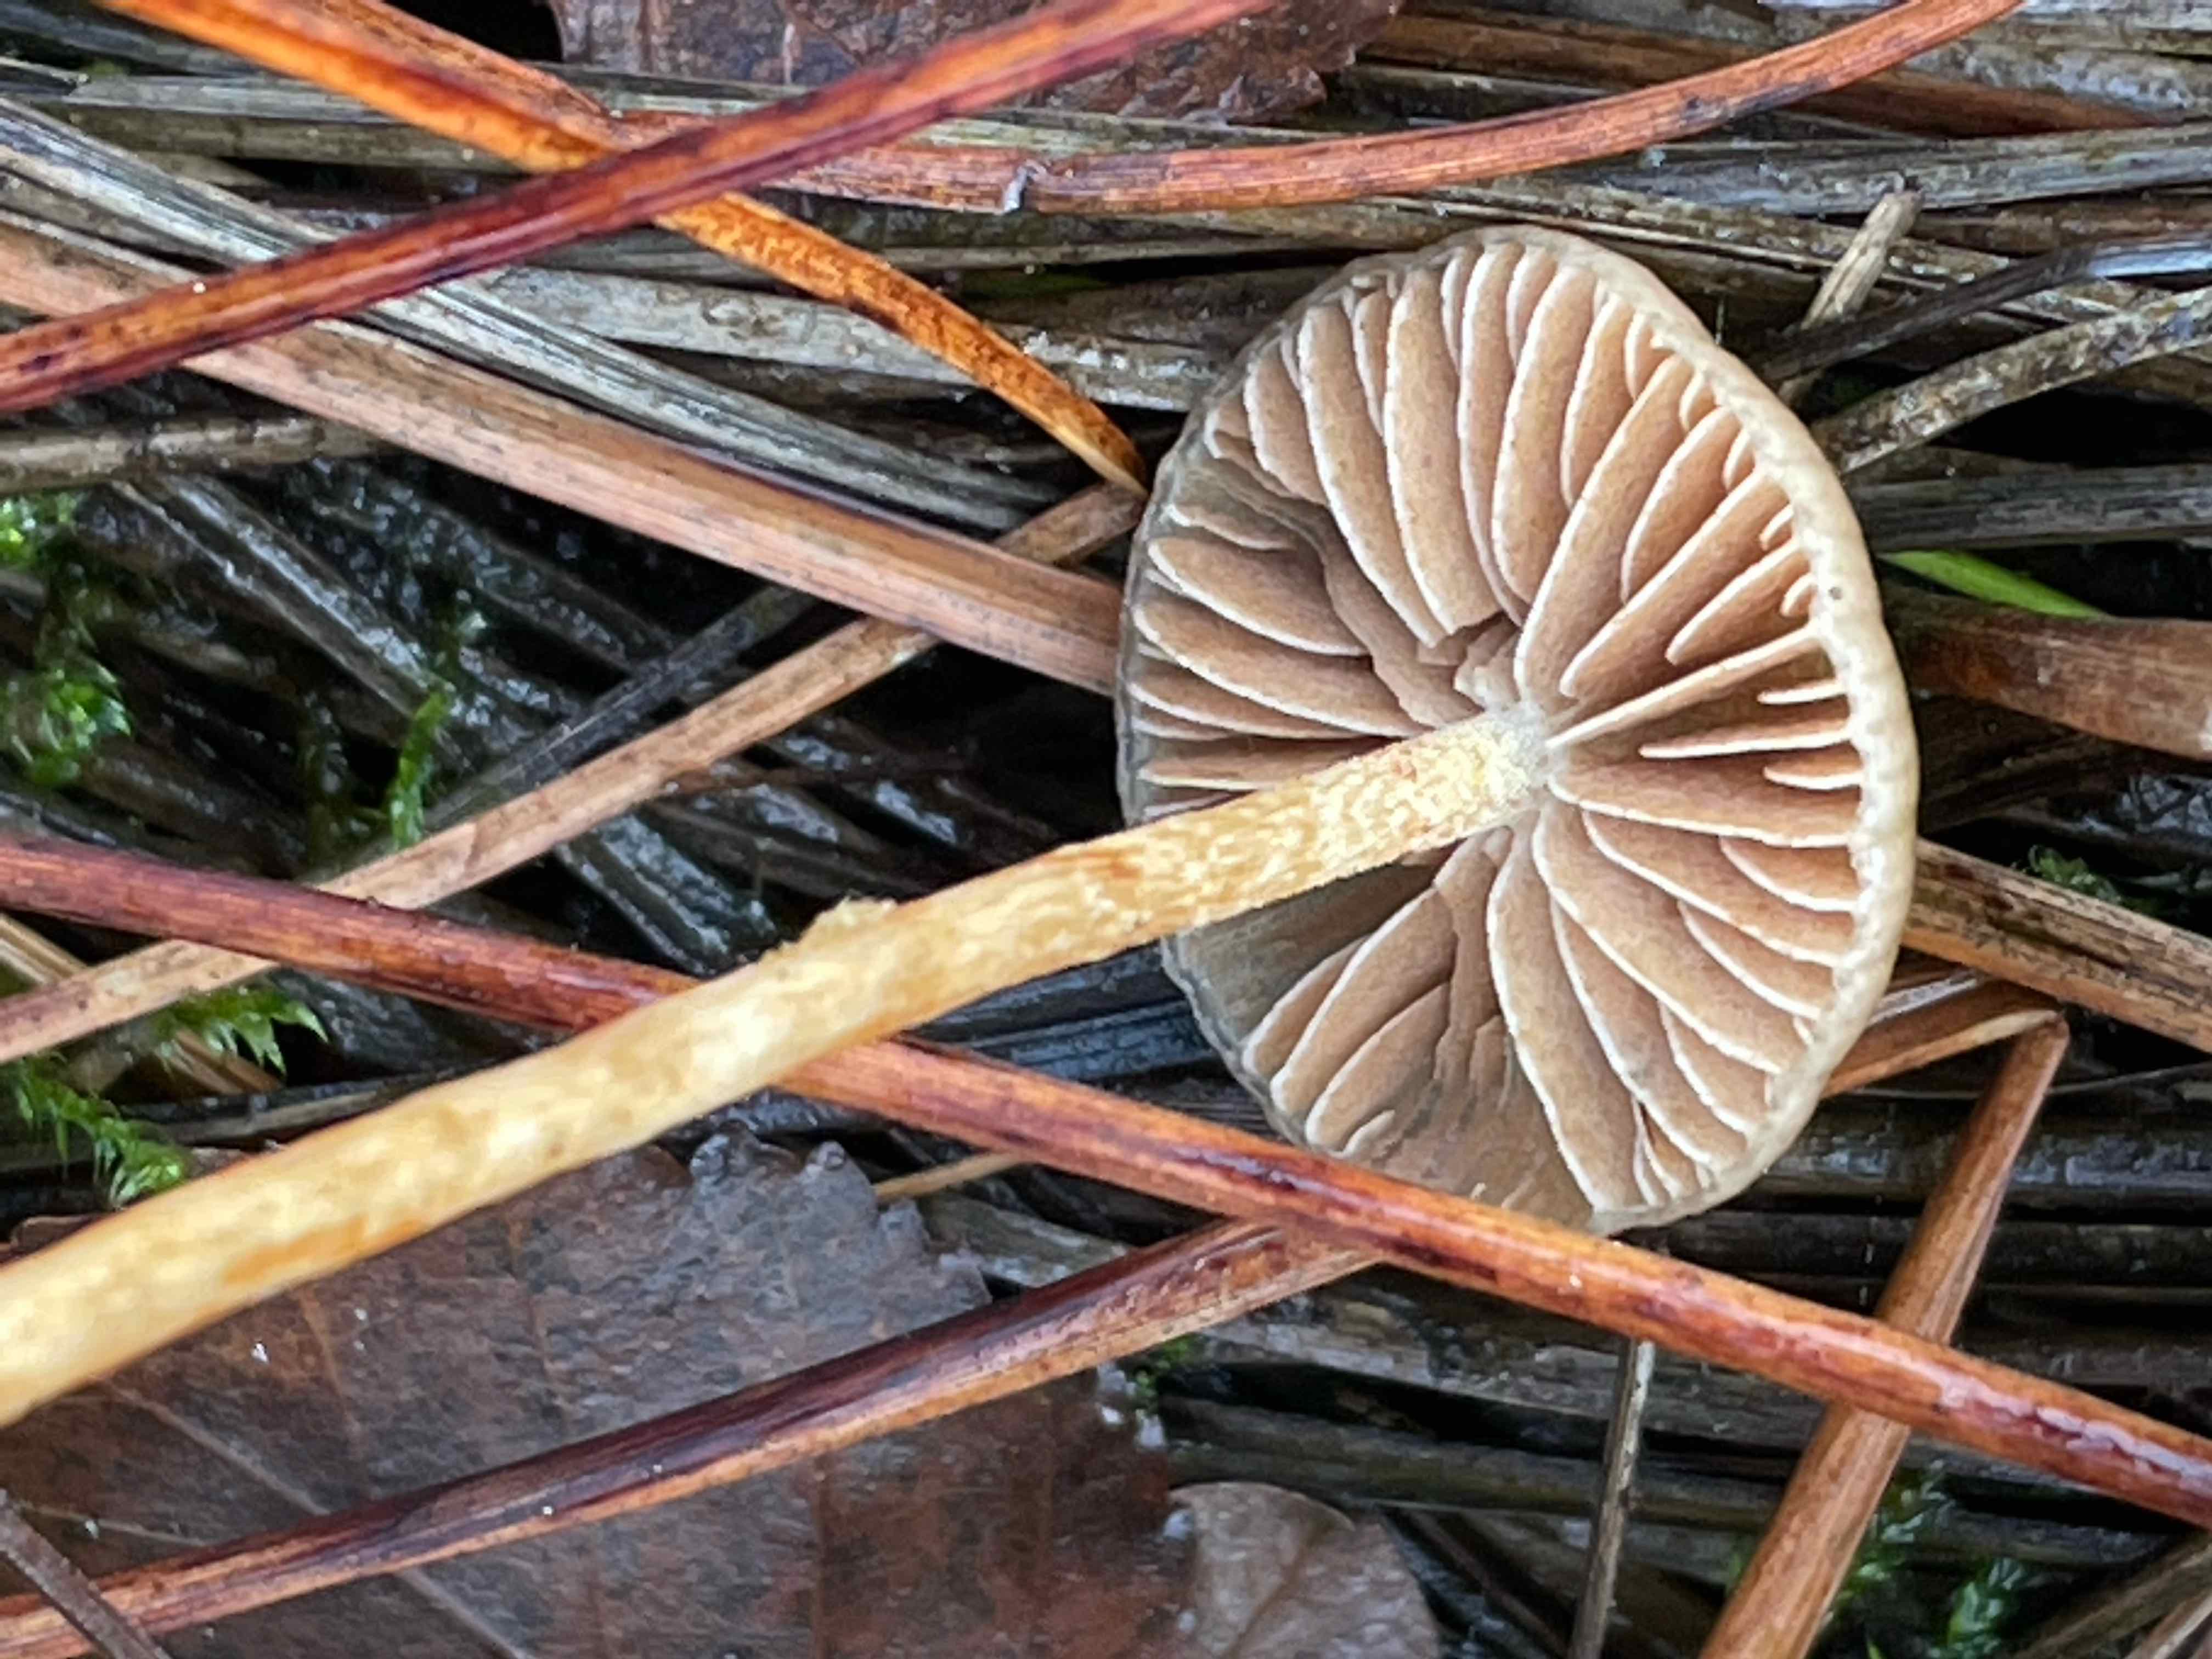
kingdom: Fungi
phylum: Basidiomycota
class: Agaricomycetes
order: Agaricales
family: Strophariaceae
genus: Hypholoma
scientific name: Hypholoma
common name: svovlhat
